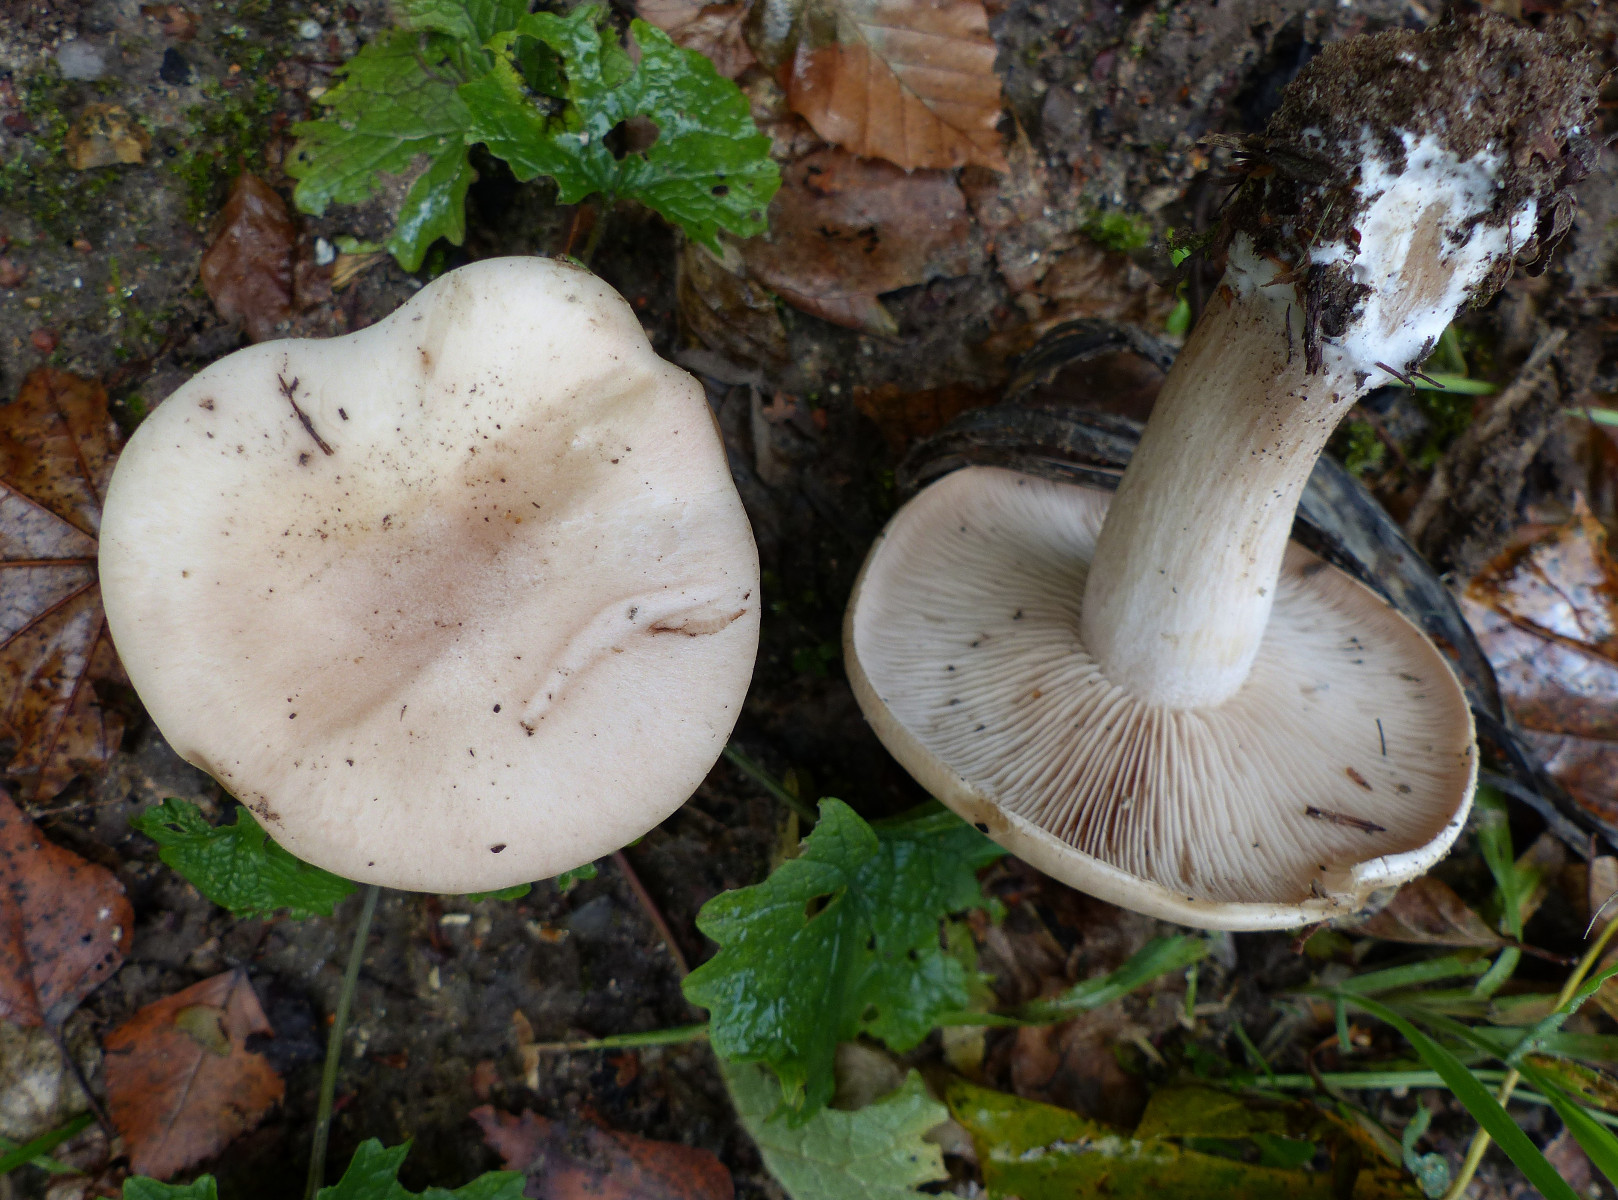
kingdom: Fungi
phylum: Basidiomycota
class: Agaricomycetes
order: Agaricales
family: Tricholomataceae
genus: Lepista
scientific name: Lepista irina
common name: violduftende hekseringshat
